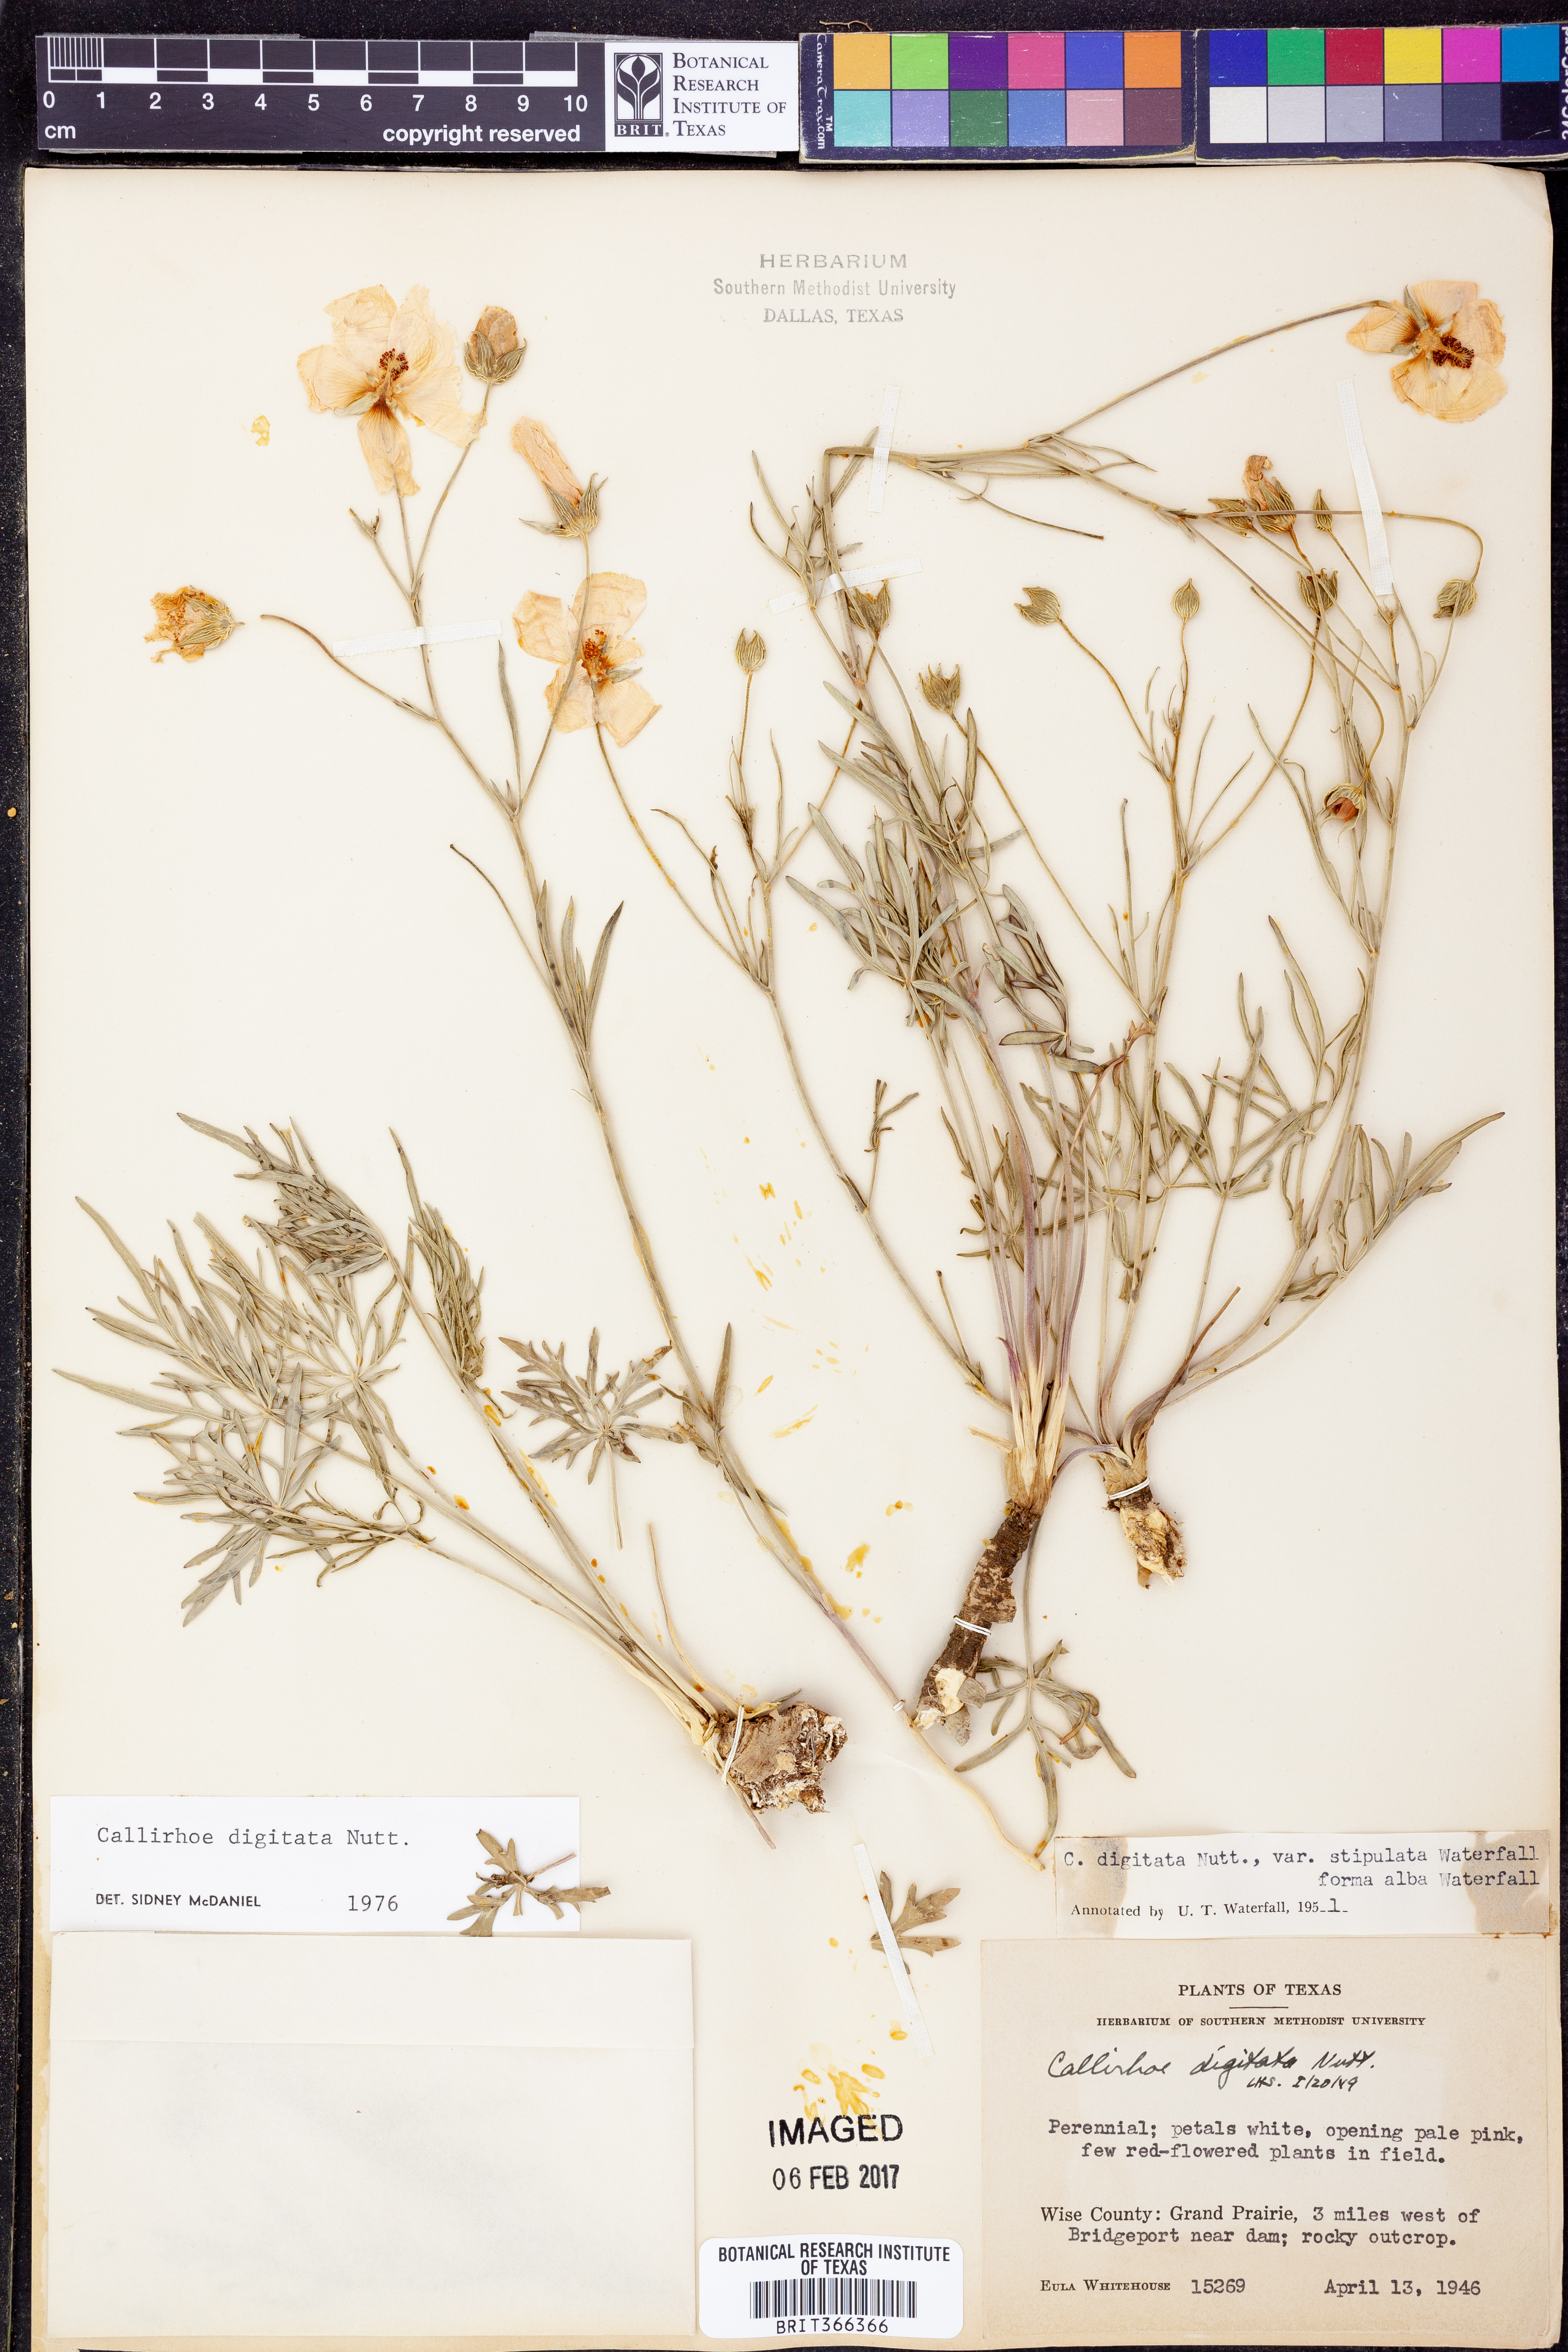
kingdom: Plantae
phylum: Tracheophyta
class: Magnoliopsida
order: Malvales
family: Malvaceae
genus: Callirhoe
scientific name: Callirhoe digitata
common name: Finger poppy-mallow
